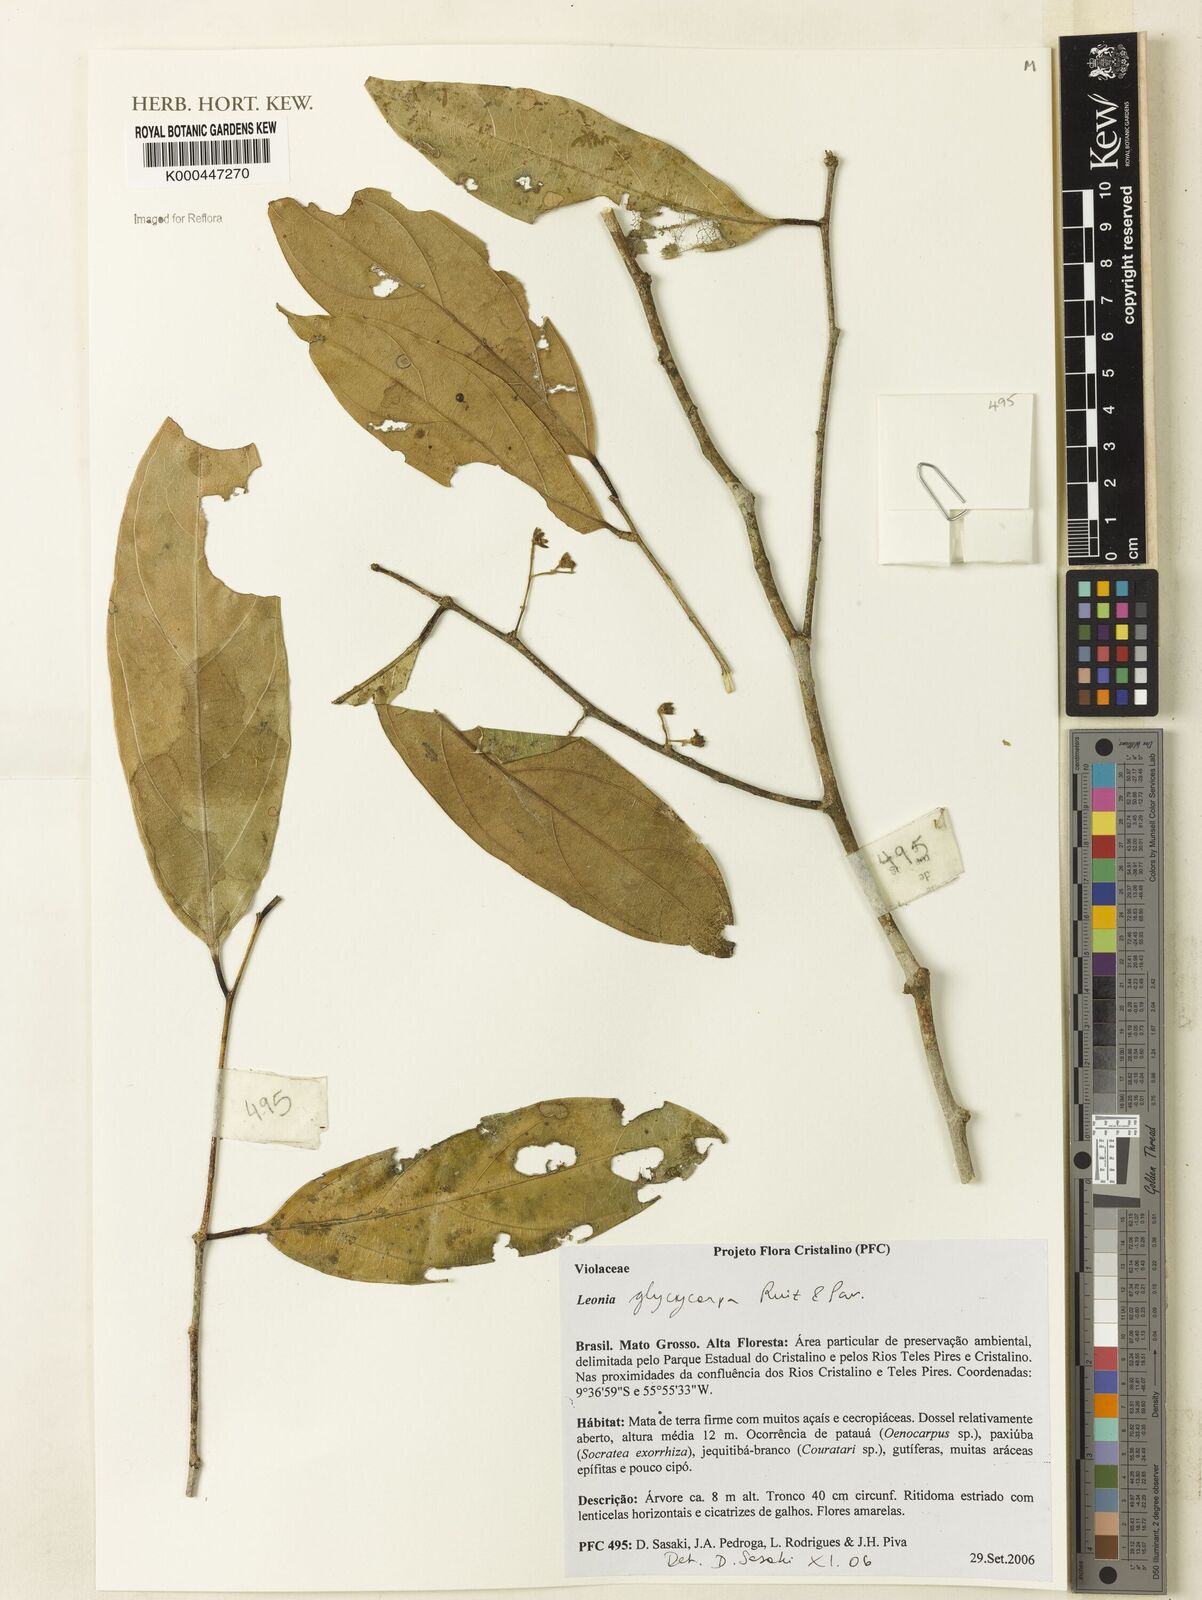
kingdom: Plantae
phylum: Tracheophyta
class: Magnoliopsida
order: Malpighiales
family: Violaceae
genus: Leonia
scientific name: Leonia glycycarpa
